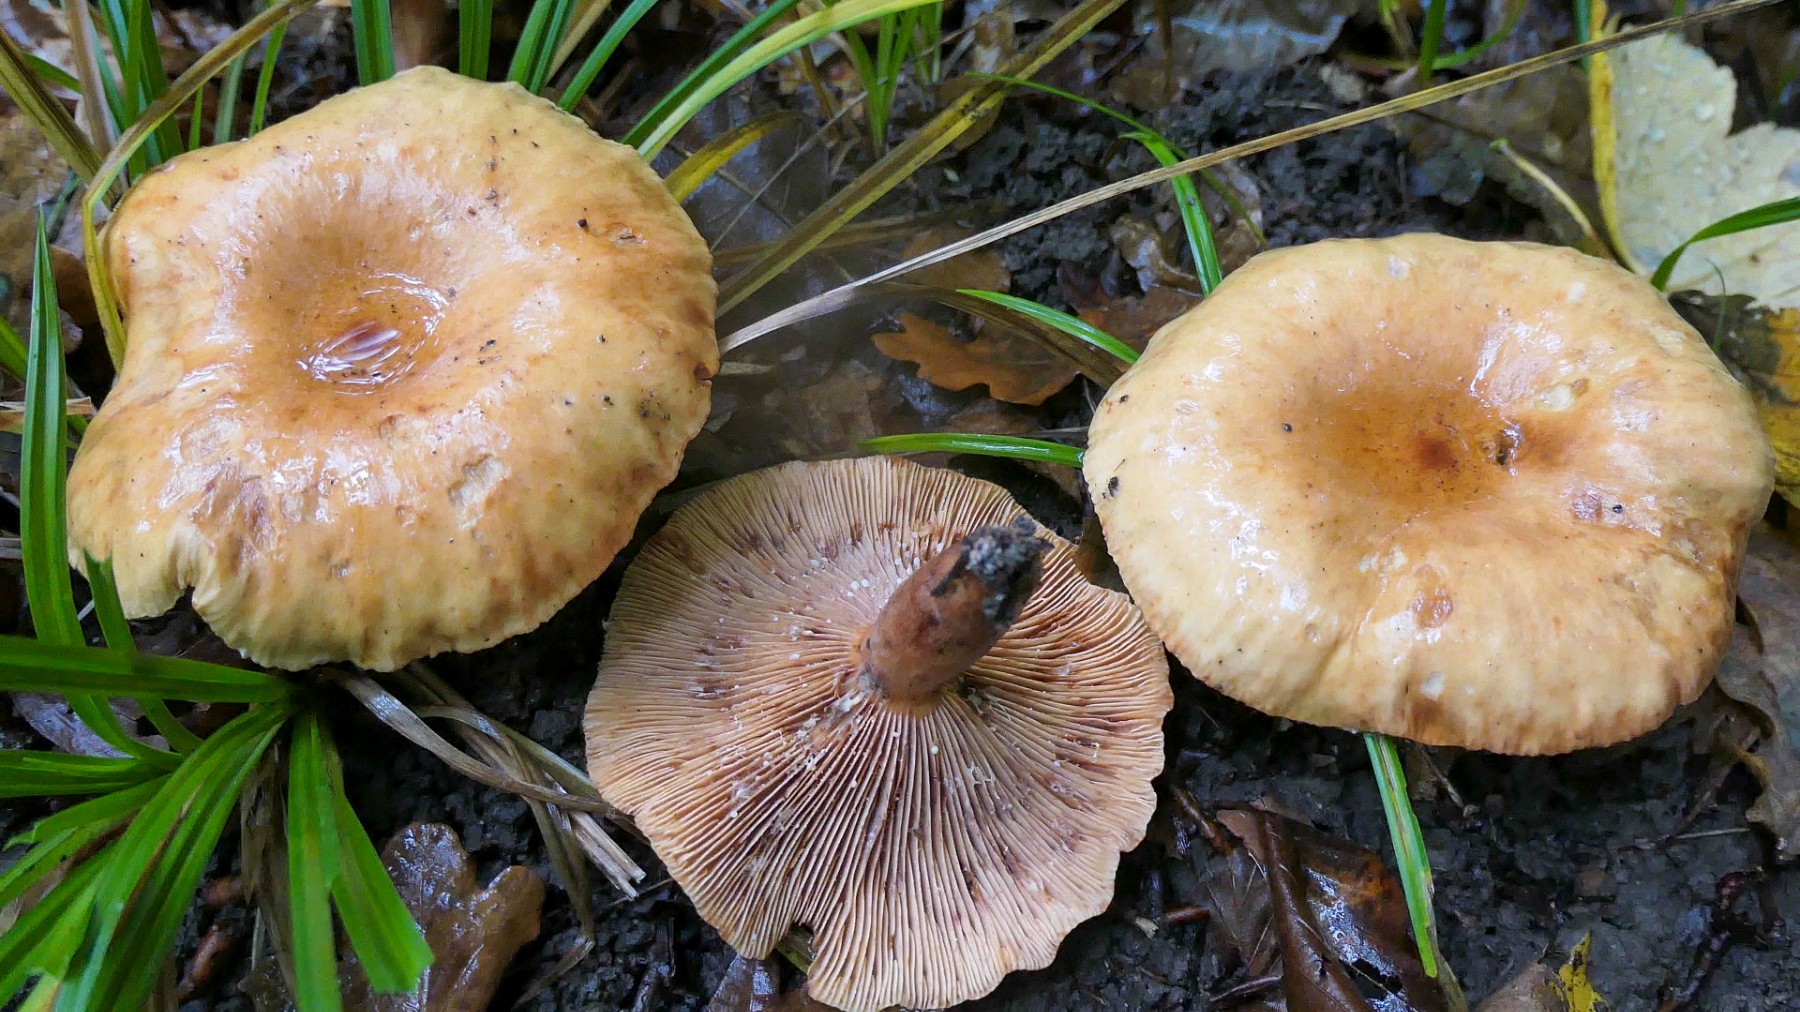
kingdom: Fungi
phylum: Basidiomycota
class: Agaricomycetes
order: Russulales
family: Russulaceae
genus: Lactarius
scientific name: Lactarius fulvissimus
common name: ræve-mælkehat
